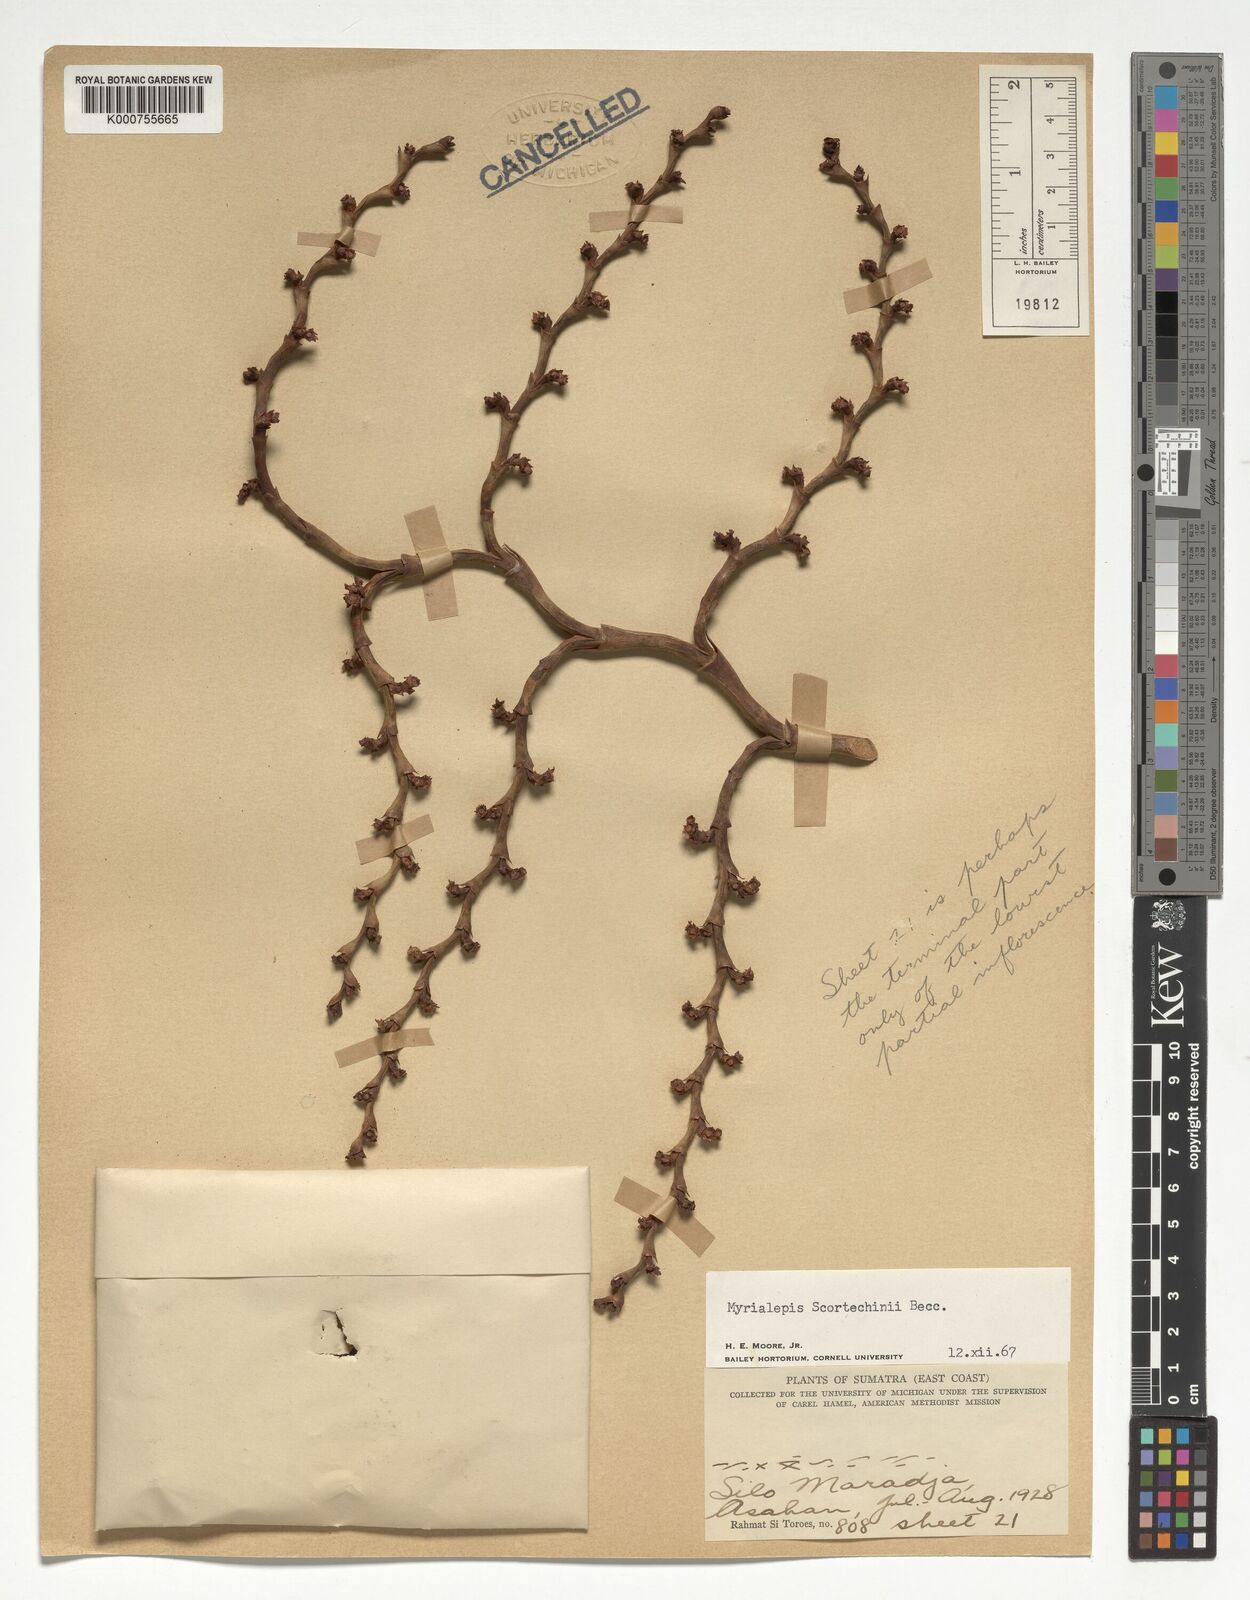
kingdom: Plantae
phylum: Tracheophyta
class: Liliopsida
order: Arecales
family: Arecaceae
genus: Myrialepis
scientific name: Myrialepis paradoxa
